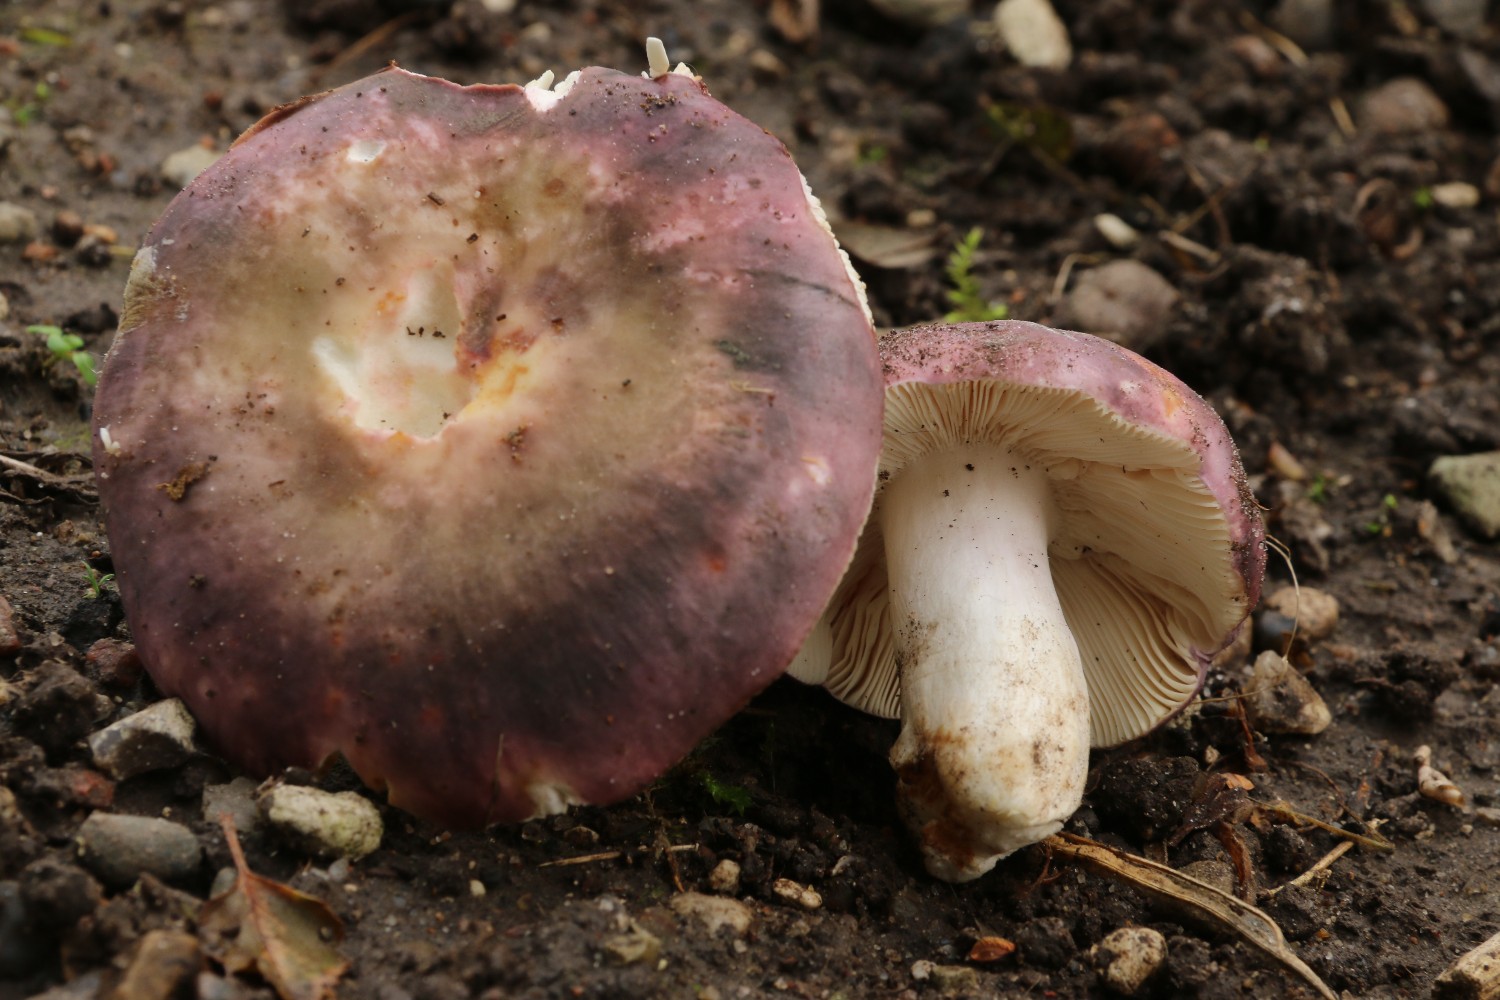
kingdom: Fungi
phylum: Basidiomycota
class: Agaricomycetes
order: Russulales
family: Russulaceae
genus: Russula
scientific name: Russula ionochlora
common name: violetgrøn skørhat
